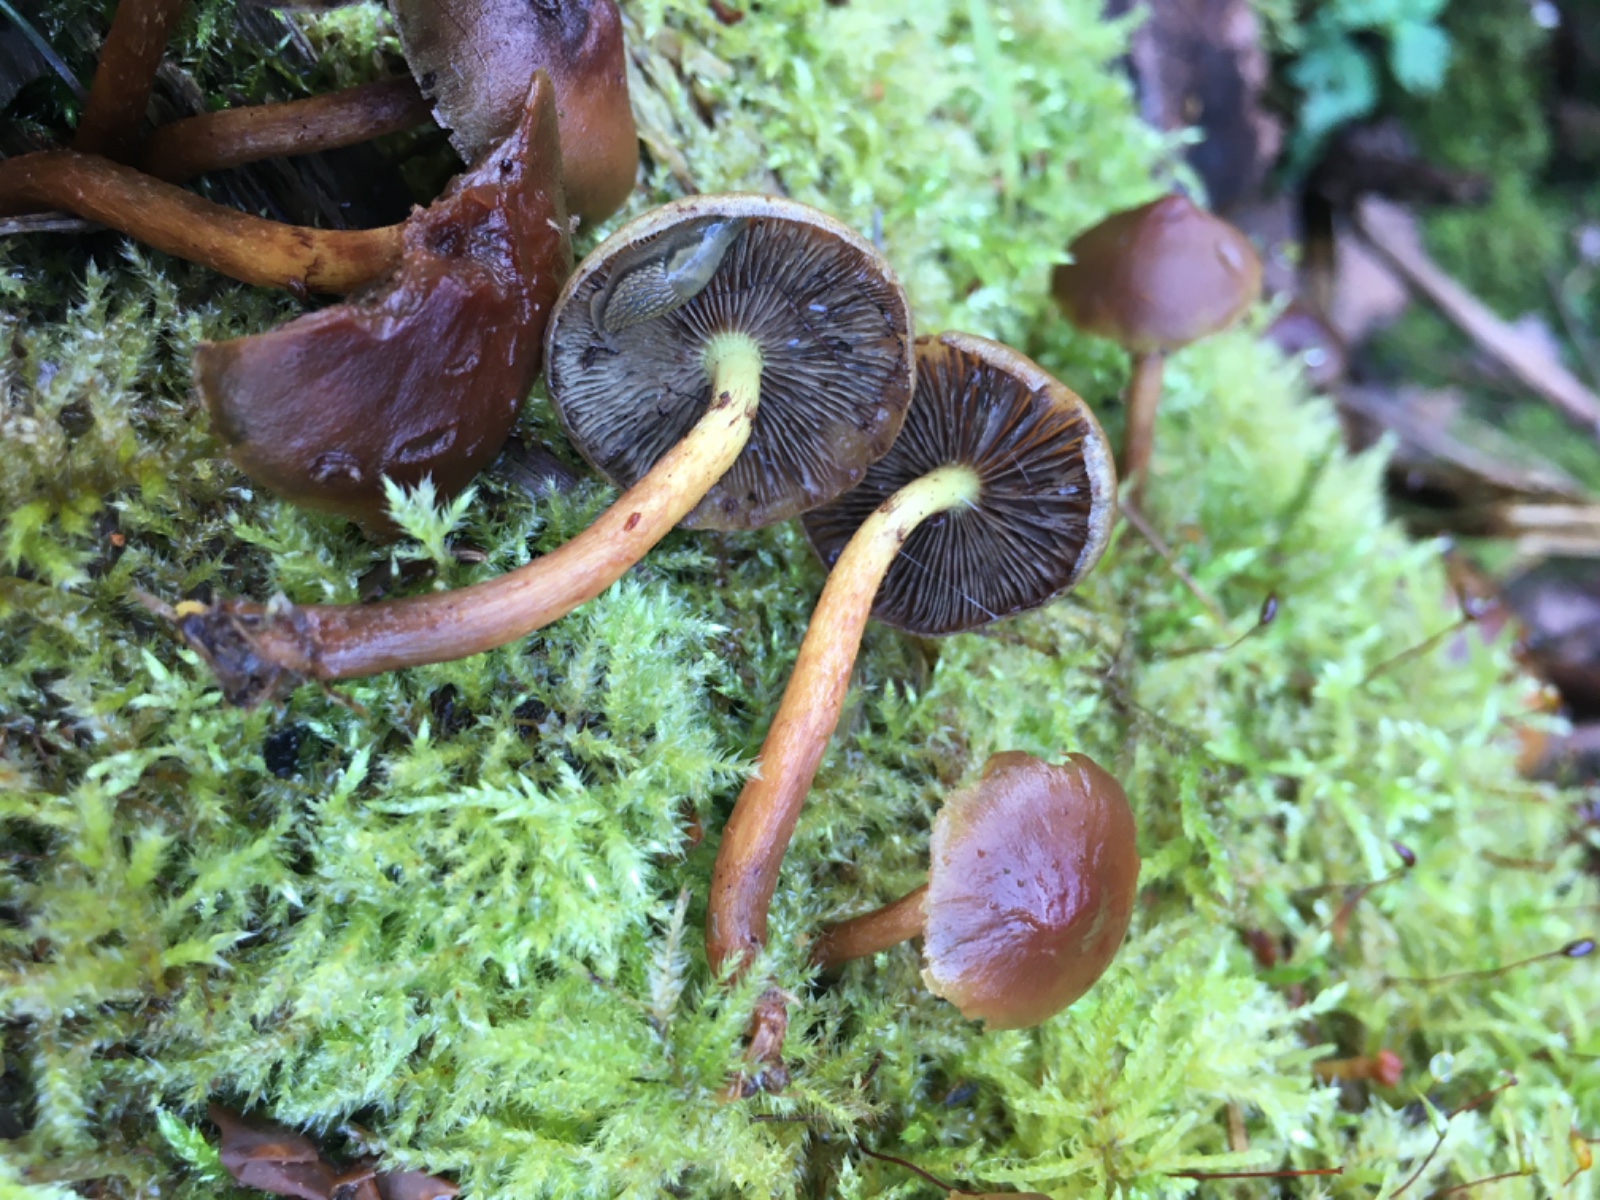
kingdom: Fungi
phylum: Basidiomycota
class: Agaricomycetes
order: Agaricales
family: Strophariaceae
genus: Hypholoma
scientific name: Hypholoma
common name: svovlhat
